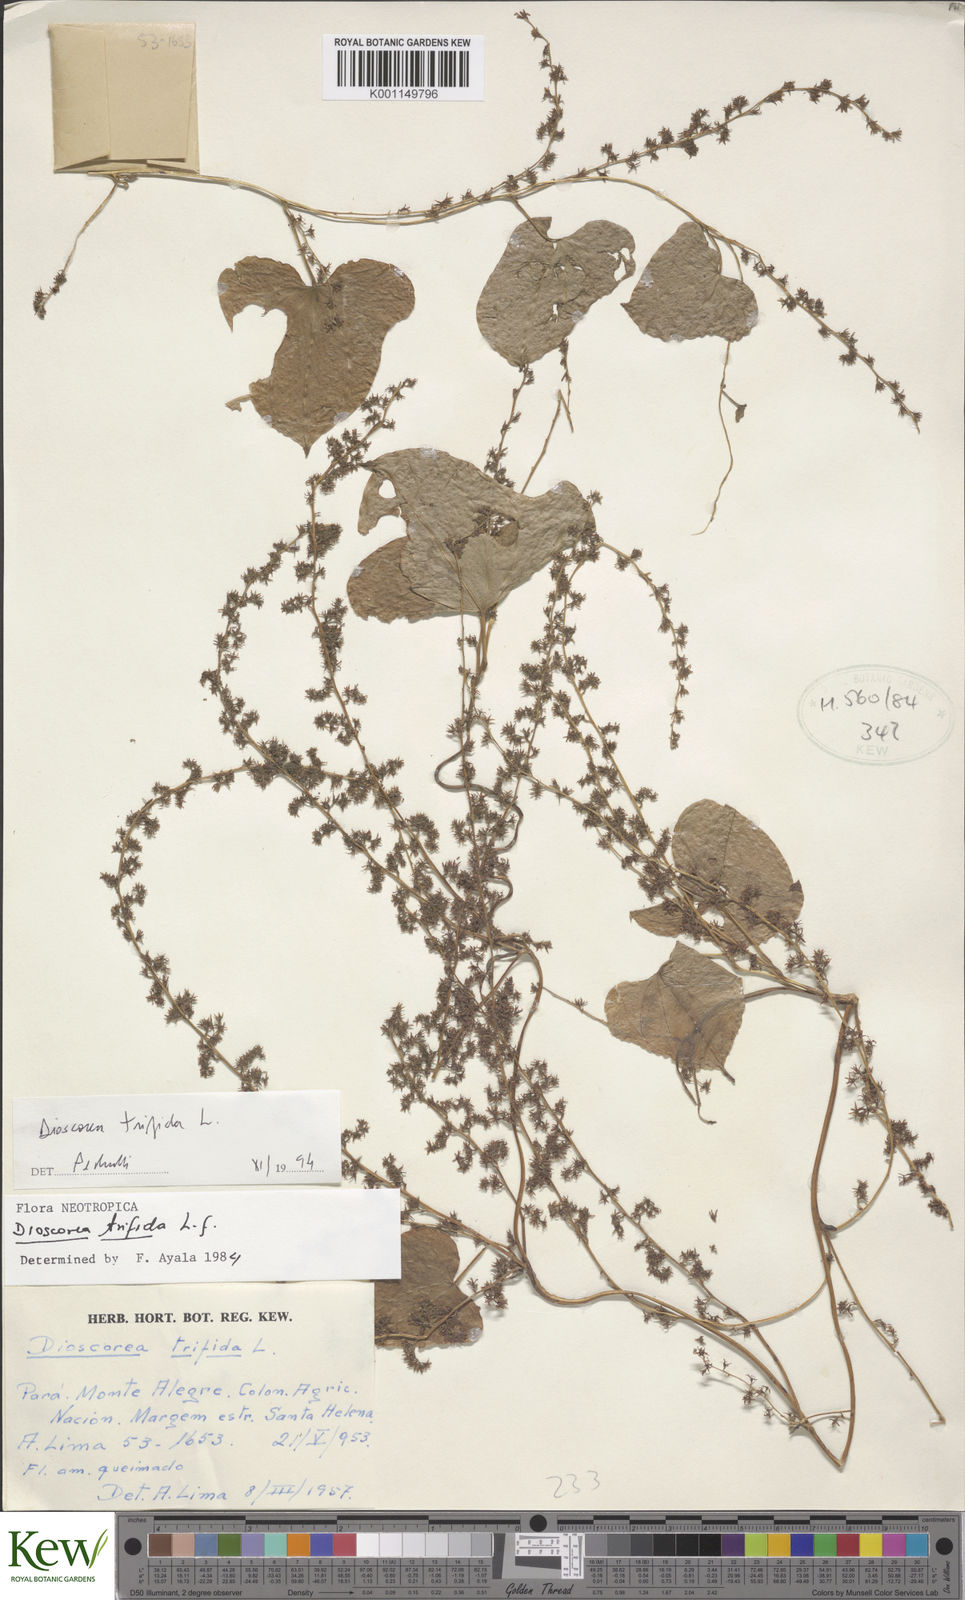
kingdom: Plantae
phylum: Tracheophyta
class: Liliopsida
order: Dioscoreales
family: Dioscoreaceae
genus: Dioscorea
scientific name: Dioscorea trifida
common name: Cush-cush
